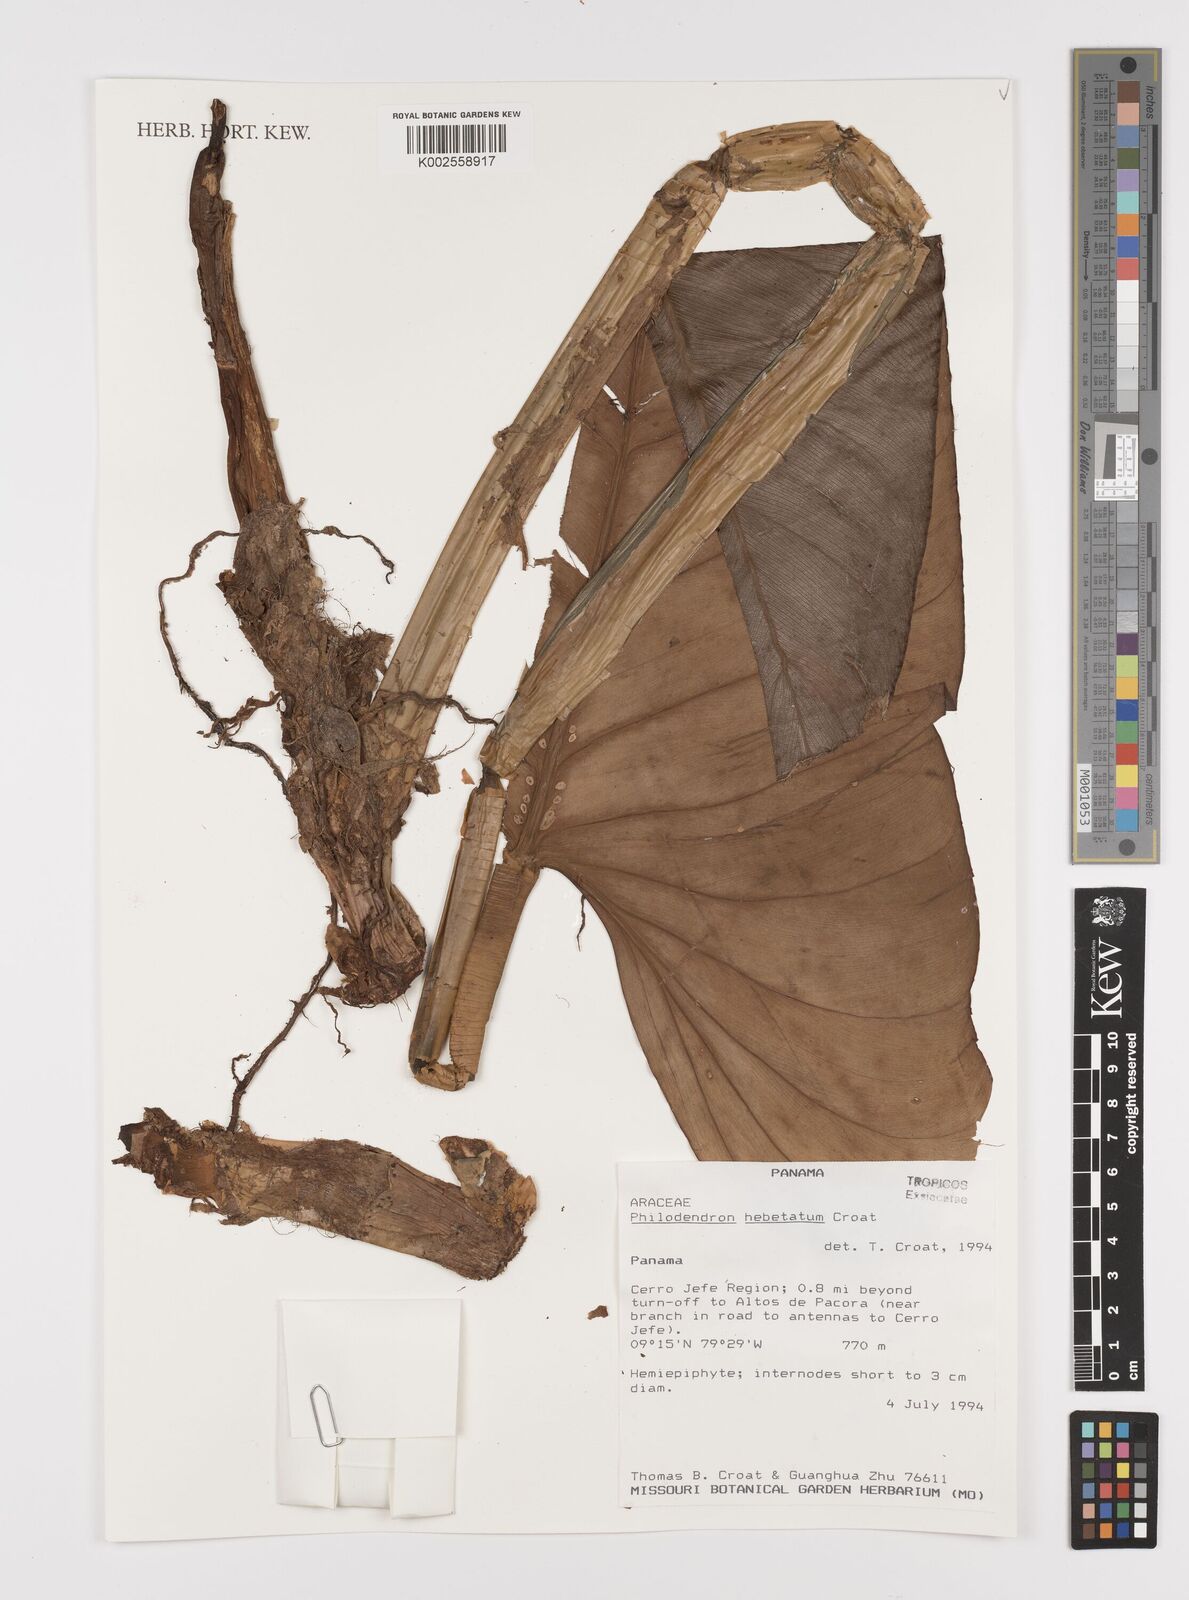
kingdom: Plantae
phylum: Tracheophyta
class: Liliopsida
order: Alismatales
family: Araceae
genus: Philodendron
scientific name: Philodendron hebetatum
